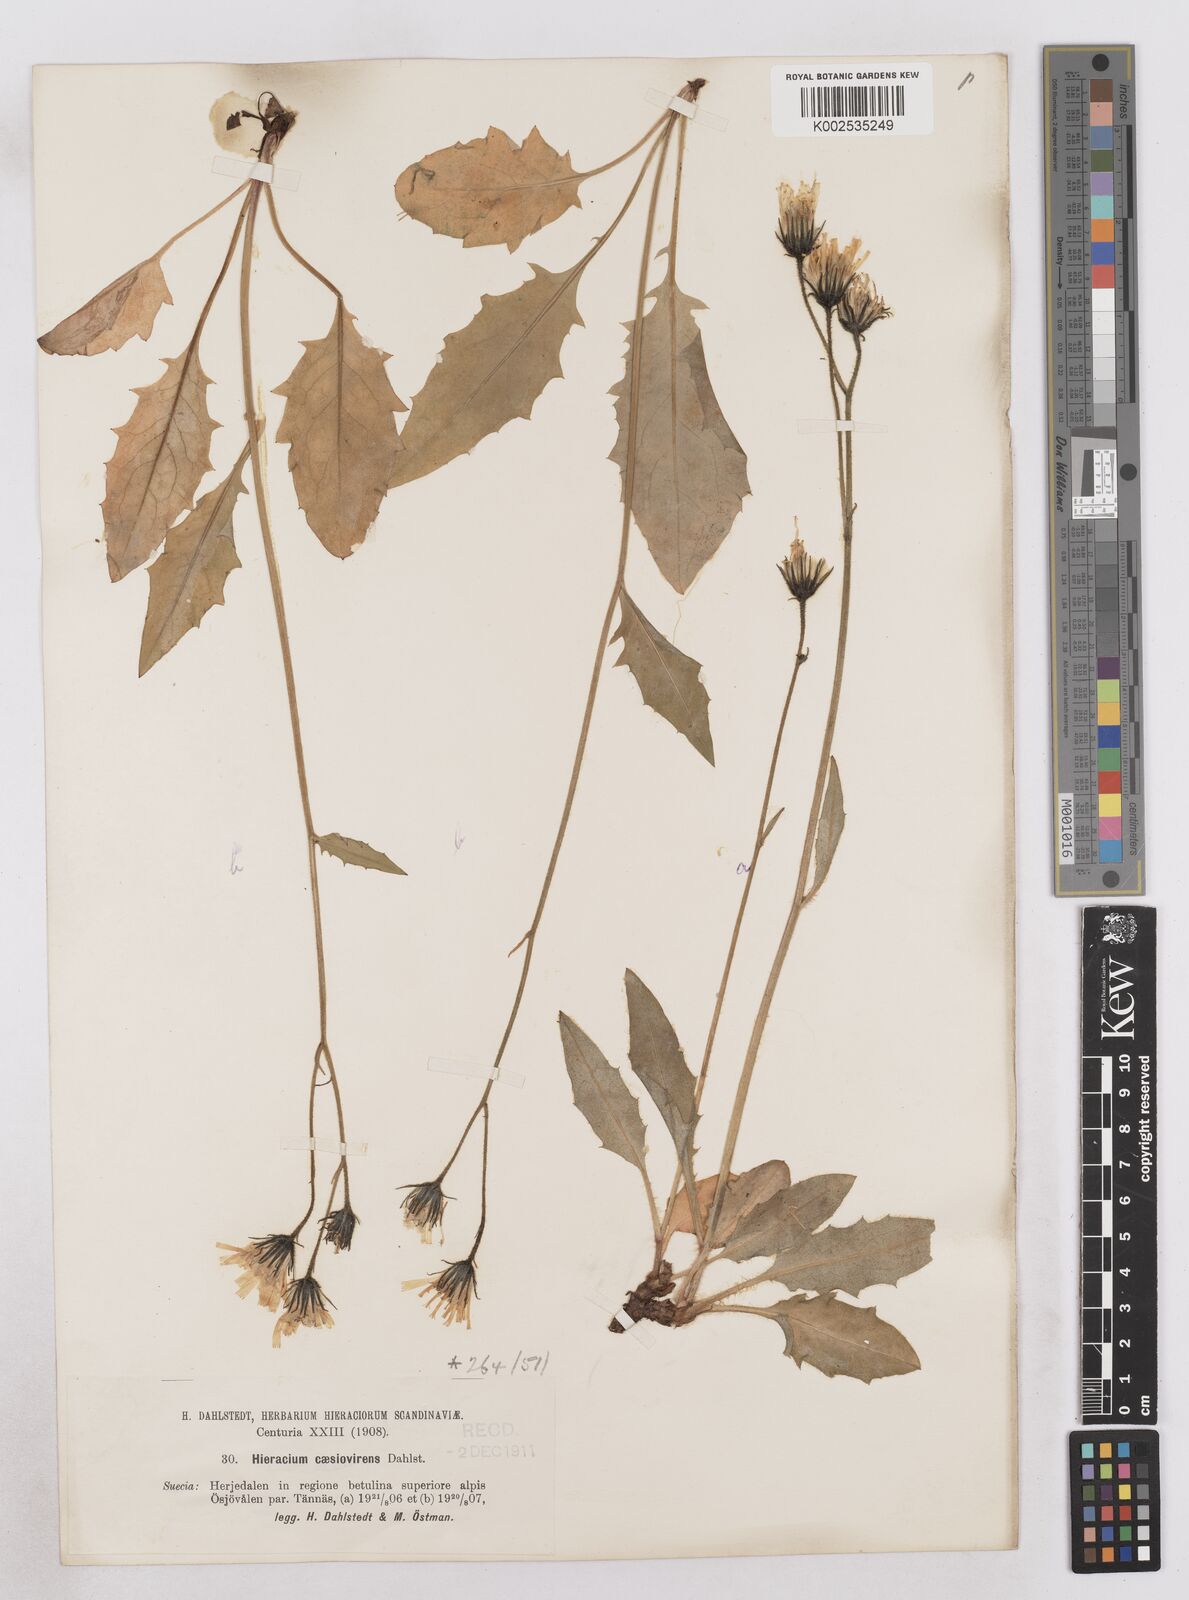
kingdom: Plantae
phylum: Tracheophyta
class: Magnoliopsida
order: Asterales
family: Asteraceae
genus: Hieracium
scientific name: Hieracium
